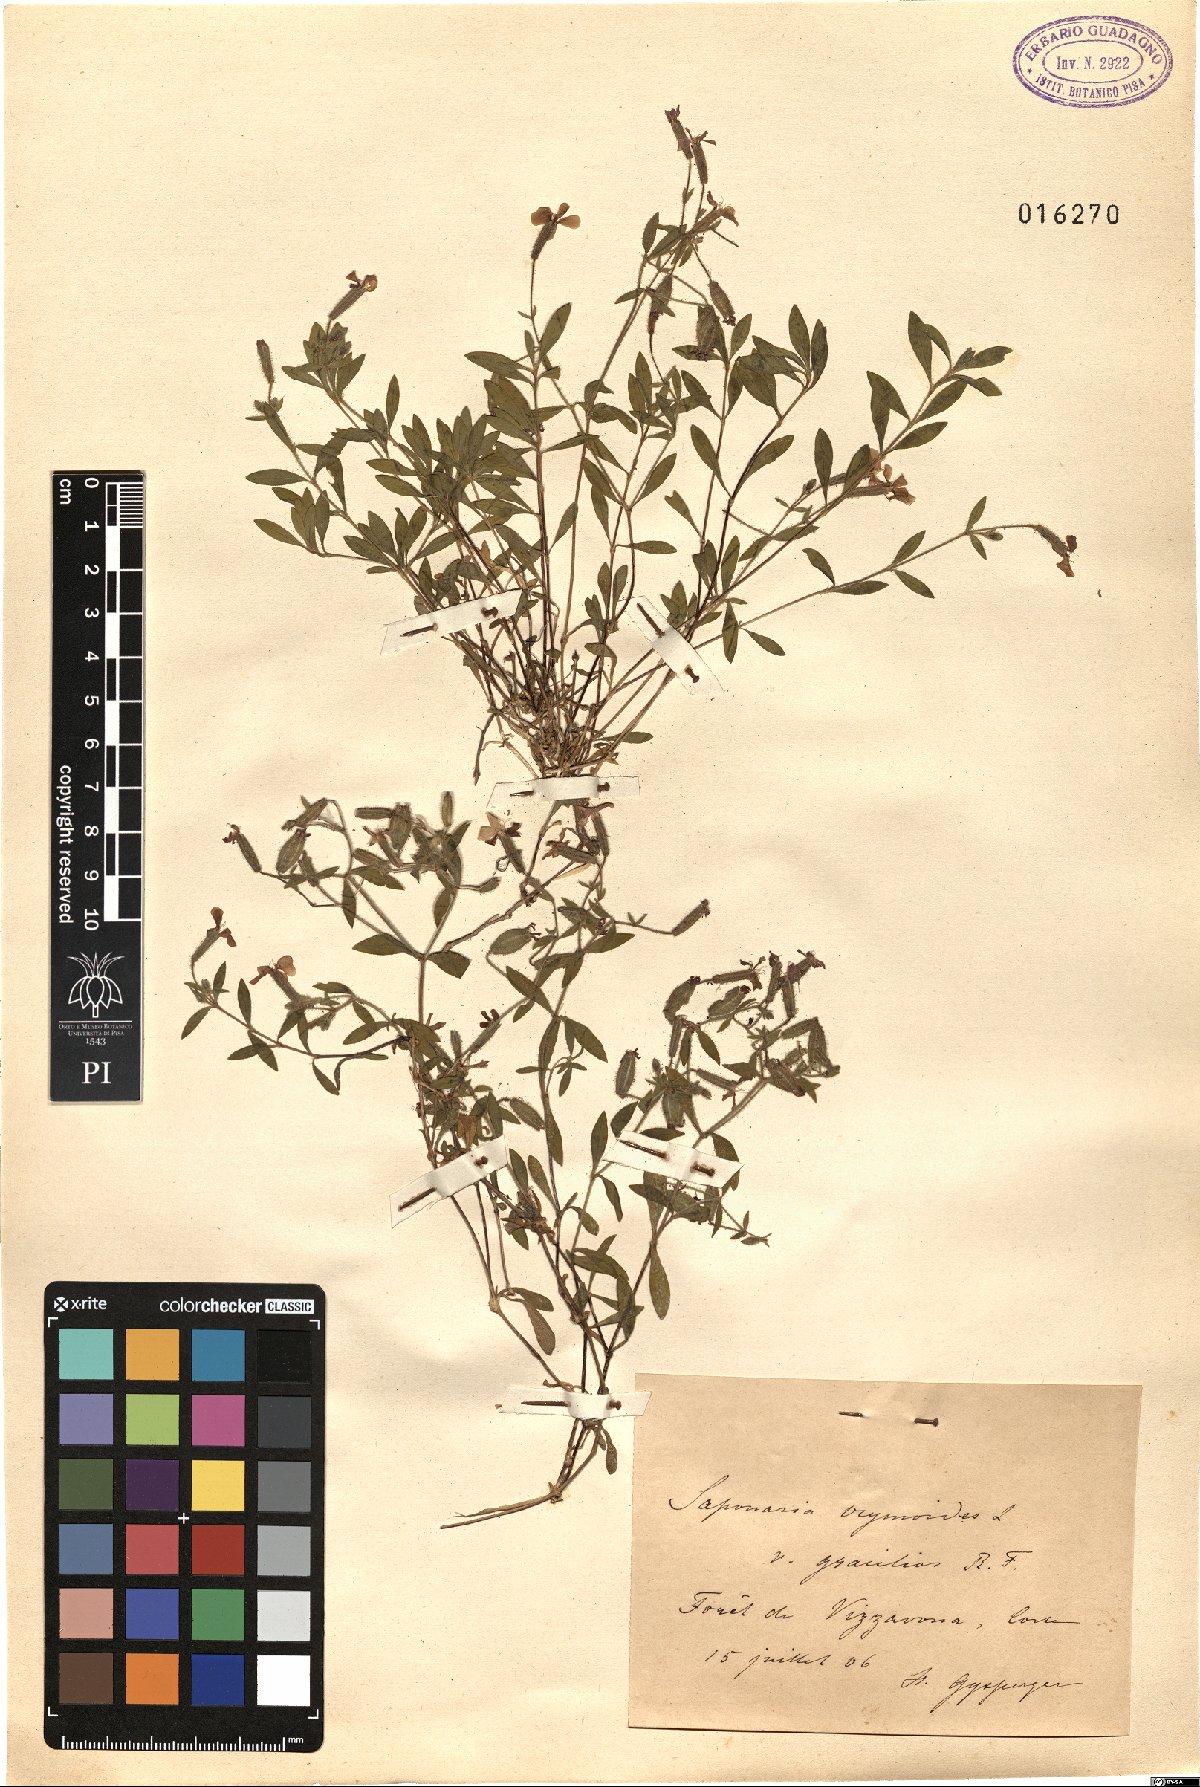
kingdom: Plantae
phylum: Tracheophyta
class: Magnoliopsida
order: Caryophyllales
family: Caryophyllaceae
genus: Saponaria
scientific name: Saponaria ocymoides
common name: Rock soapwort
